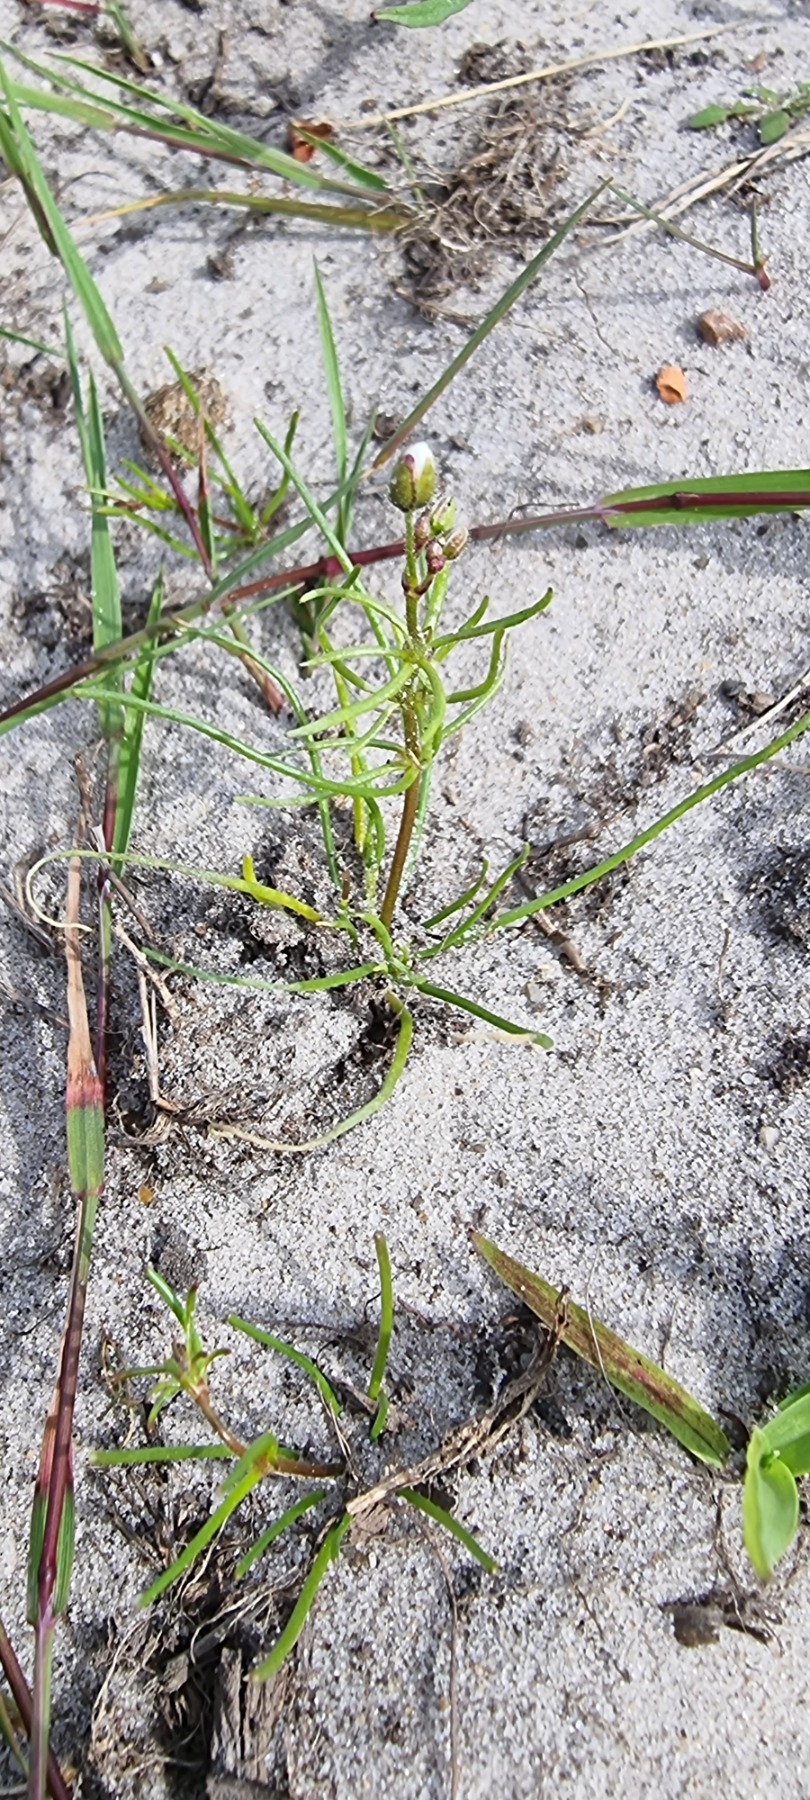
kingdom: Plantae
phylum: Tracheophyta
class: Magnoliopsida
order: Caryophyllales
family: Caryophyllaceae
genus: Spergula
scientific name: Spergula arvensis
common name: Almindelig spergel
